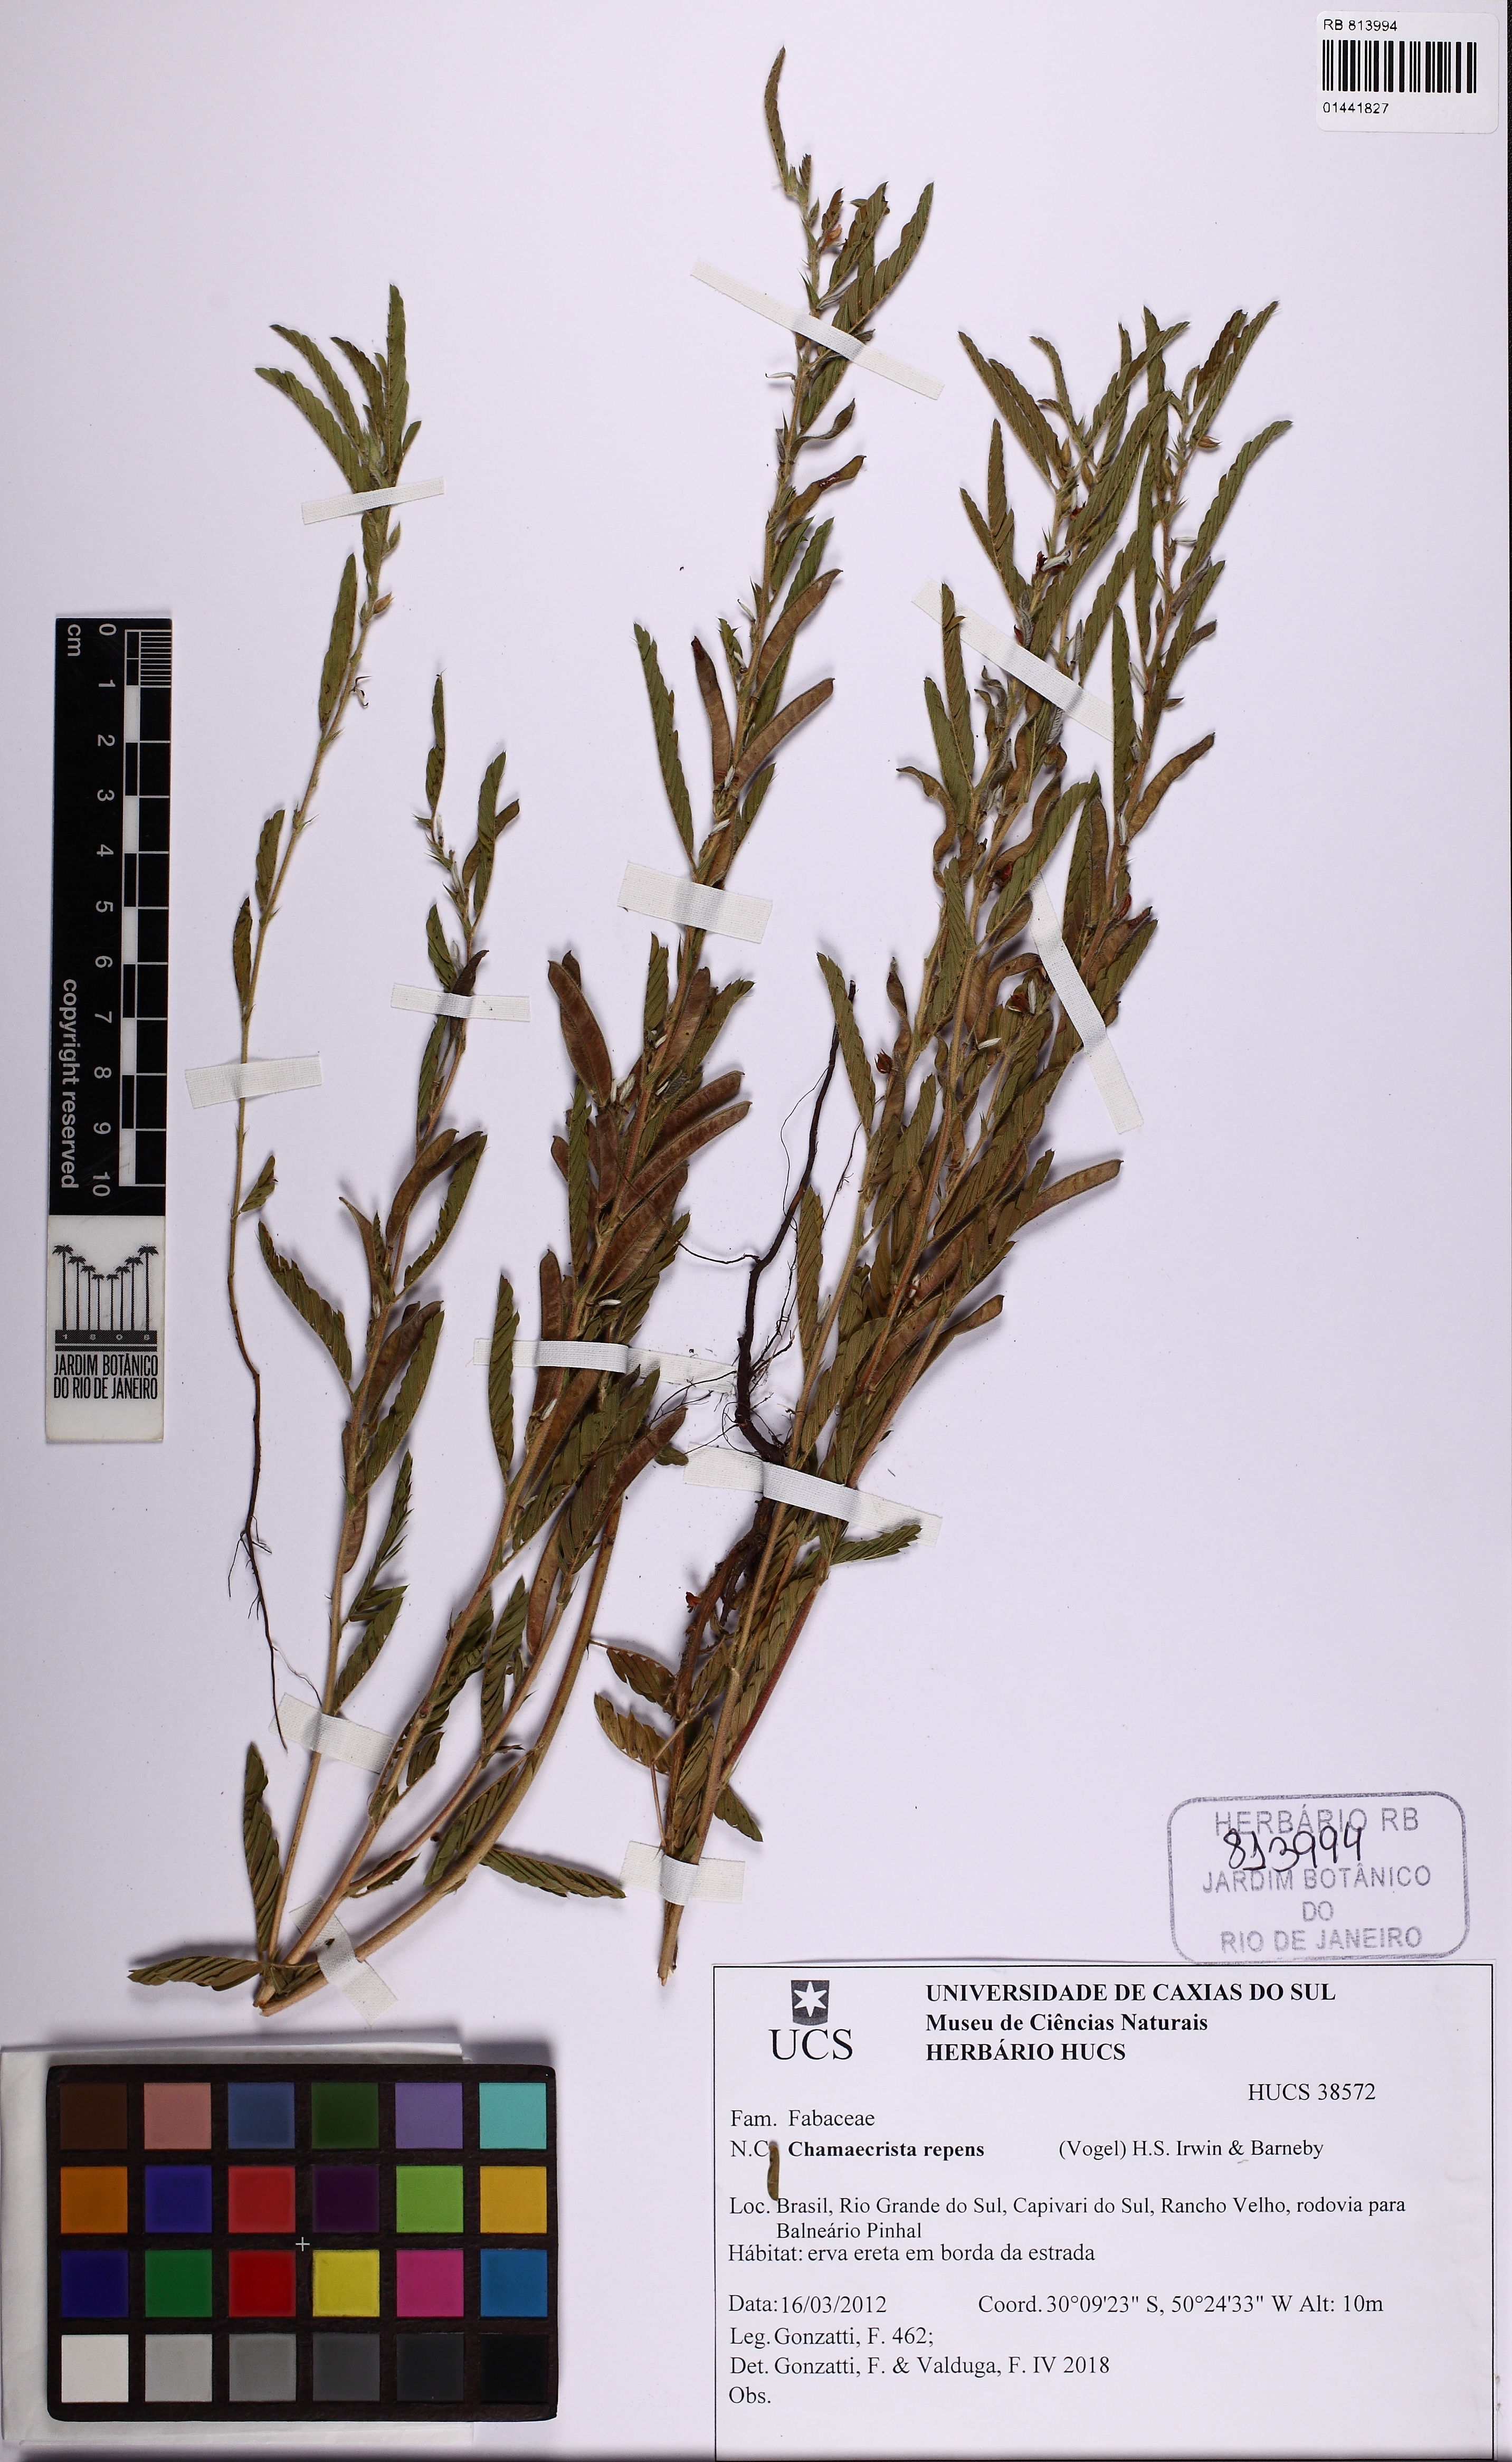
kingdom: Plantae
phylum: Tracheophyta
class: Magnoliopsida
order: Fabales
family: Fabaceae
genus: Chamaecrista
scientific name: Chamaecrista repens
